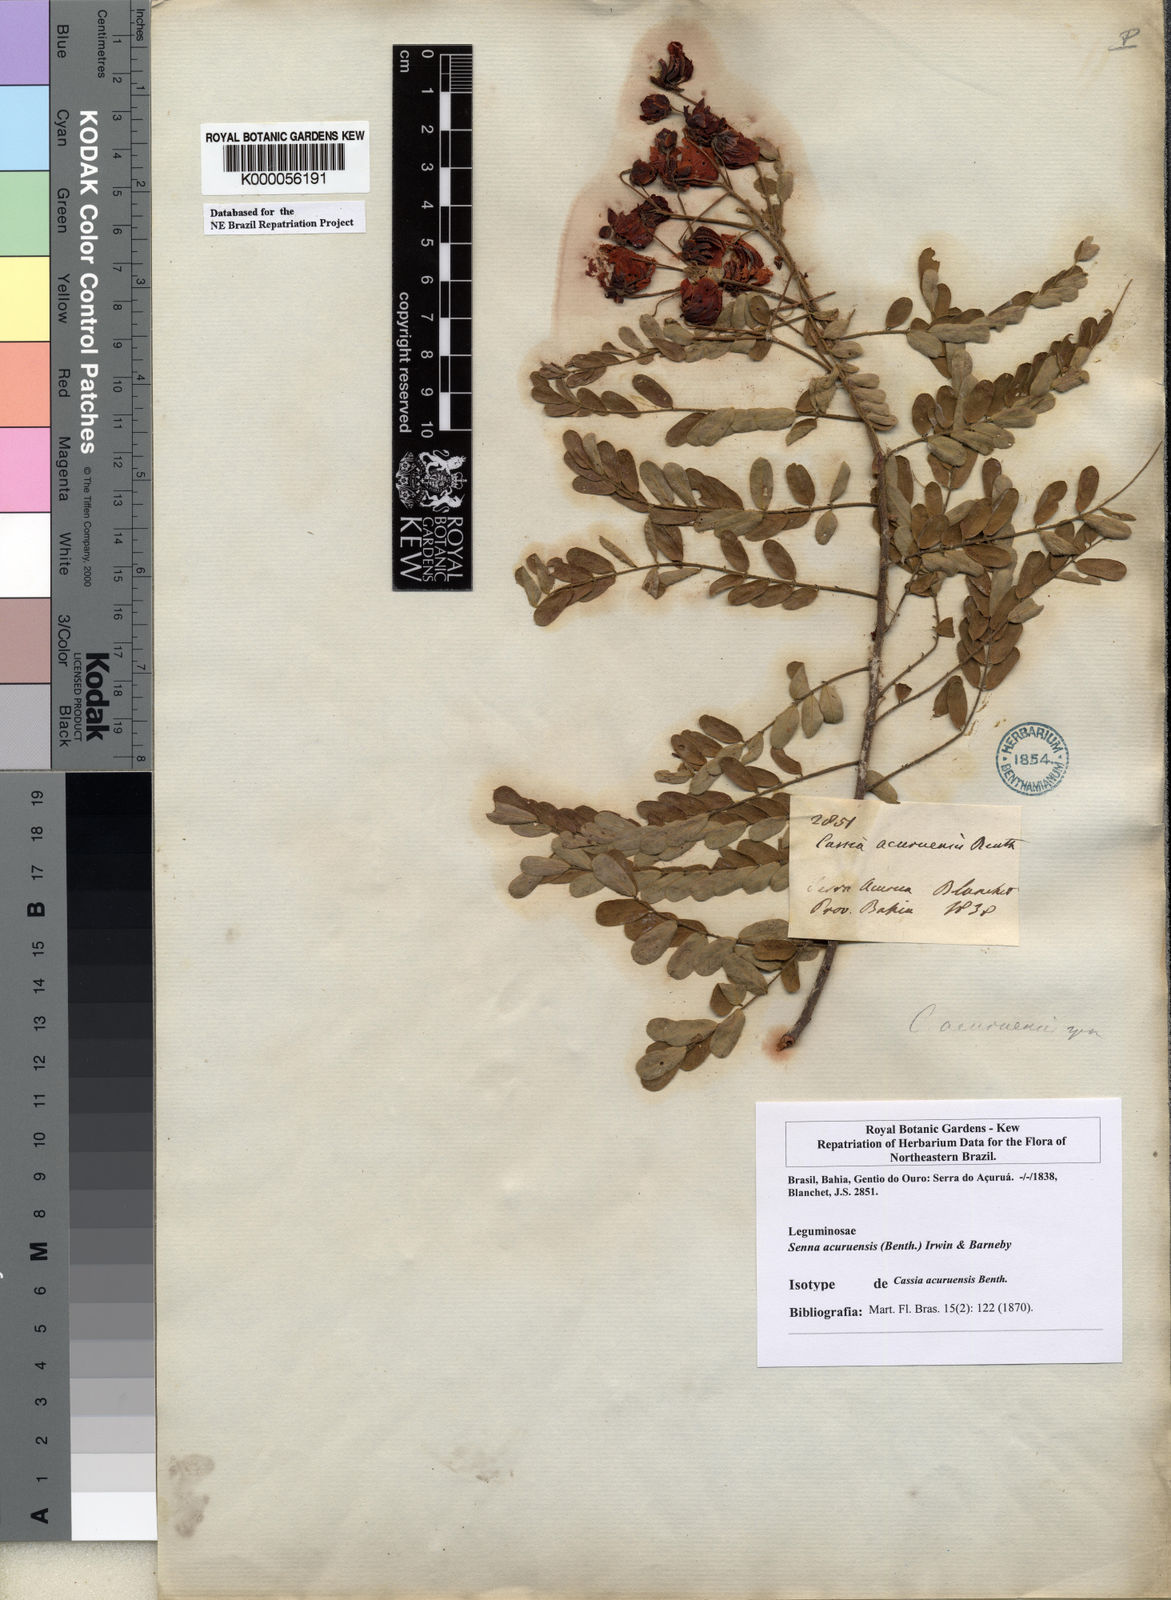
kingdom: Plantae
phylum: Tracheophyta
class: Magnoliopsida
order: Fabales
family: Fabaceae
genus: Senna
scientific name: Senna acuruensis
